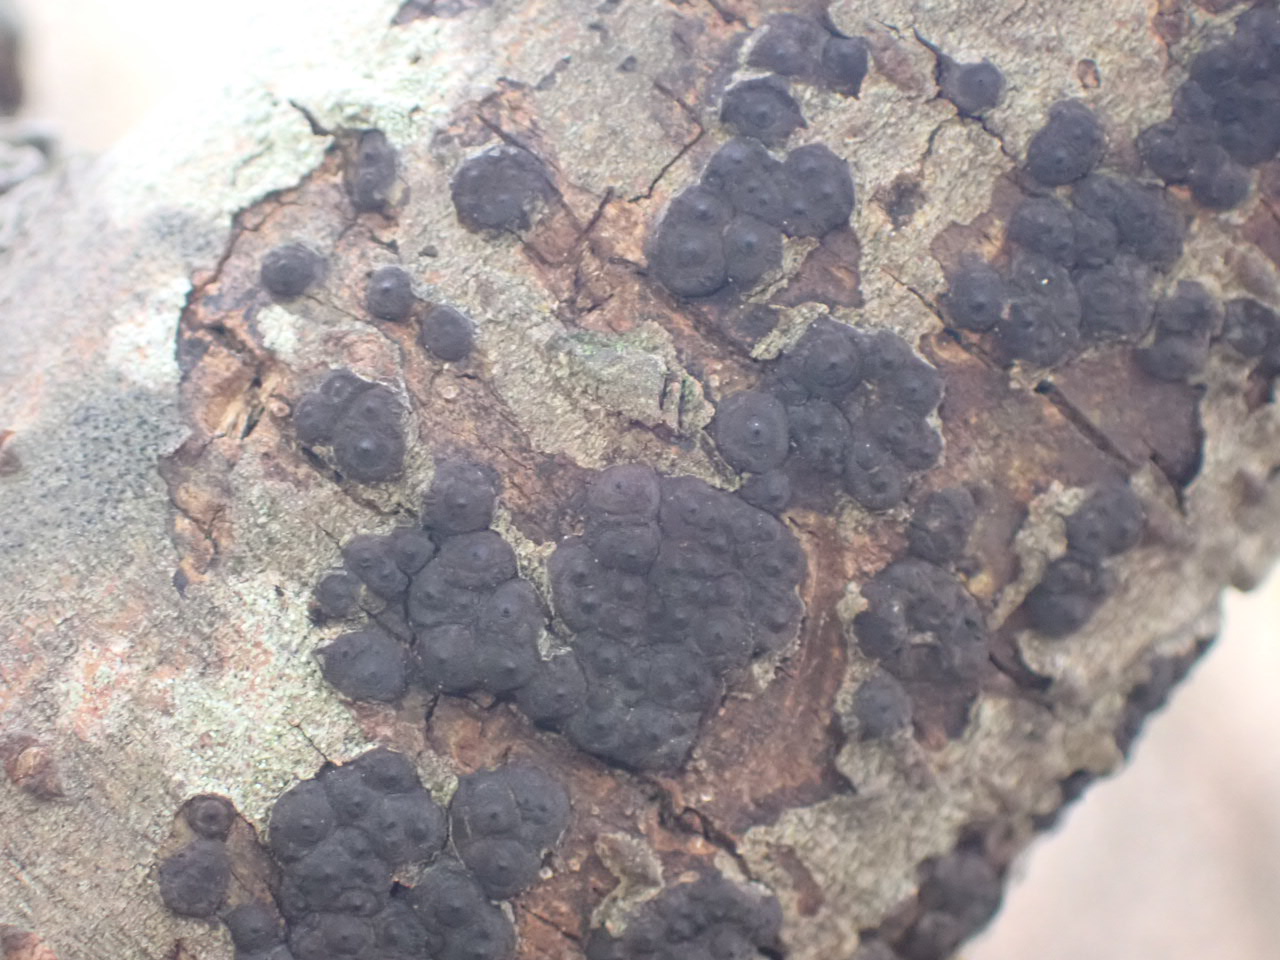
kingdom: Fungi
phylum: Ascomycota
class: Sordariomycetes
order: Xylariales
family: Xylariaceae
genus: Entoleuca
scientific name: Entoleuca mammata
